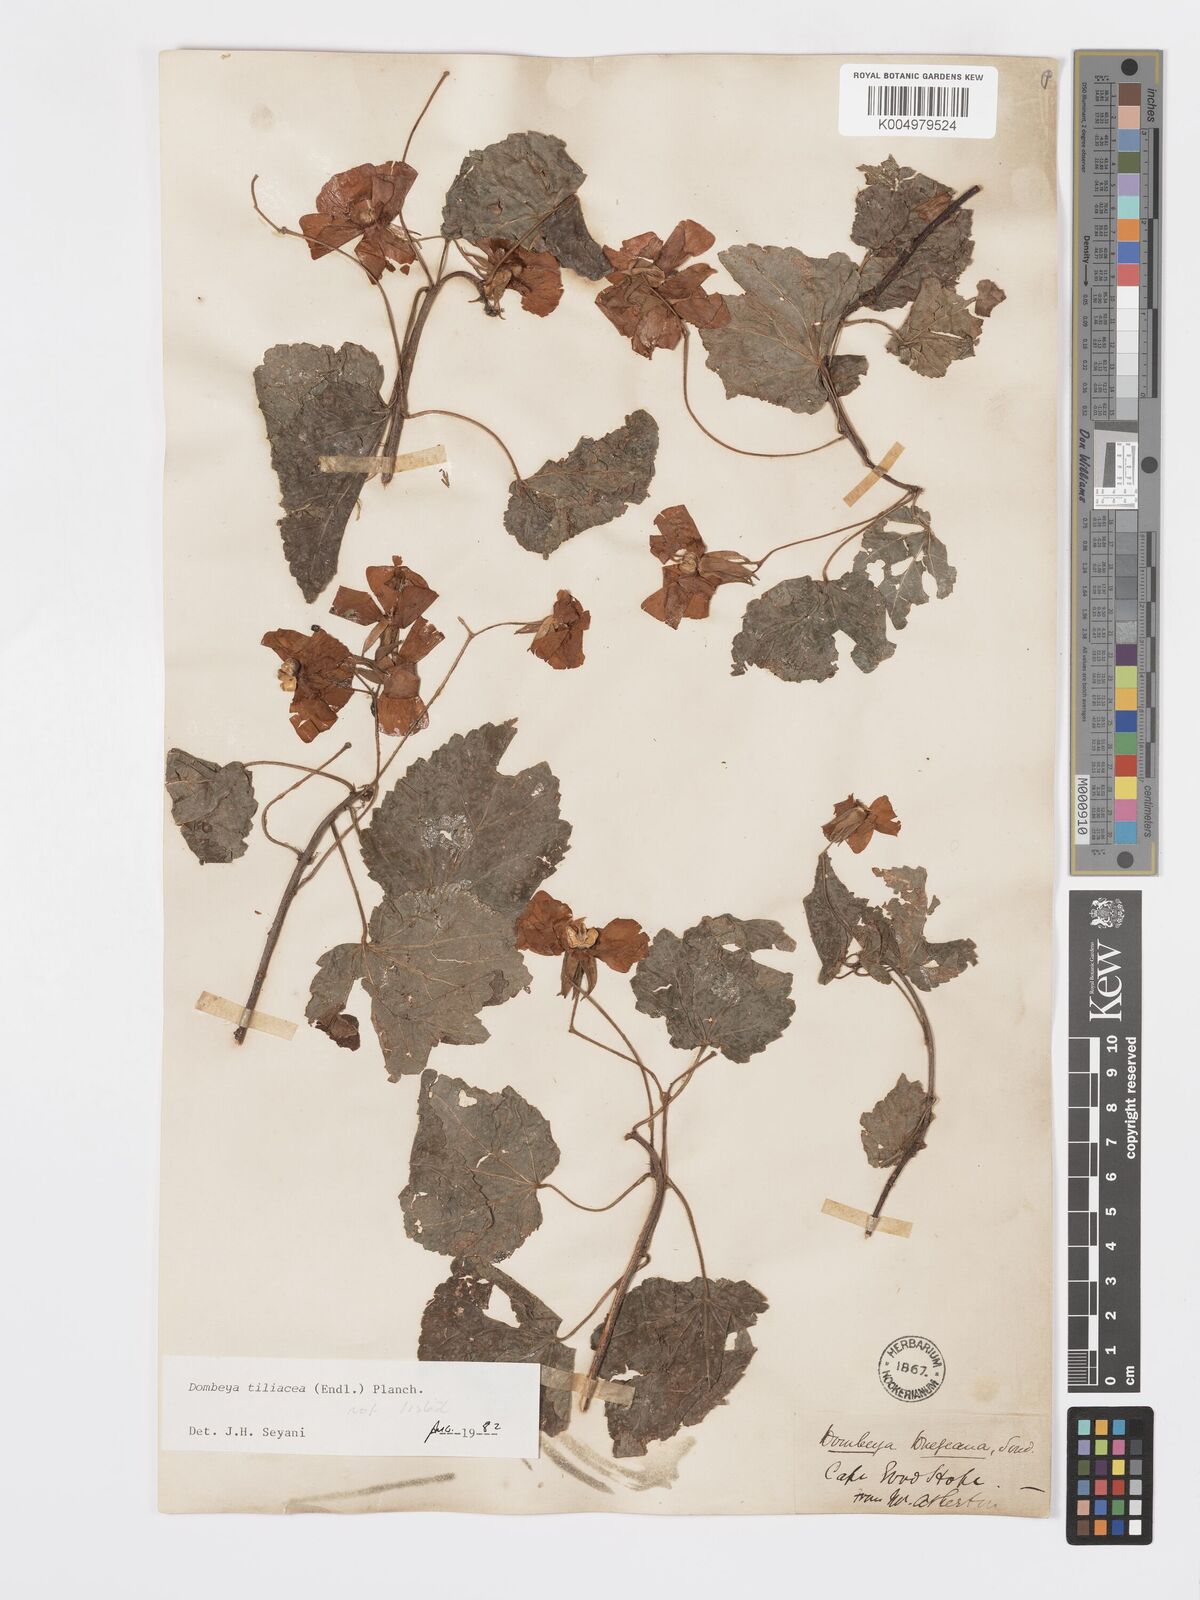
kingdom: Plantae
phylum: Tracheophyta
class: Magnoliopsida
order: Malvales
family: Malvaceae
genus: Dombeya
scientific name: Dombeya tiliacea
